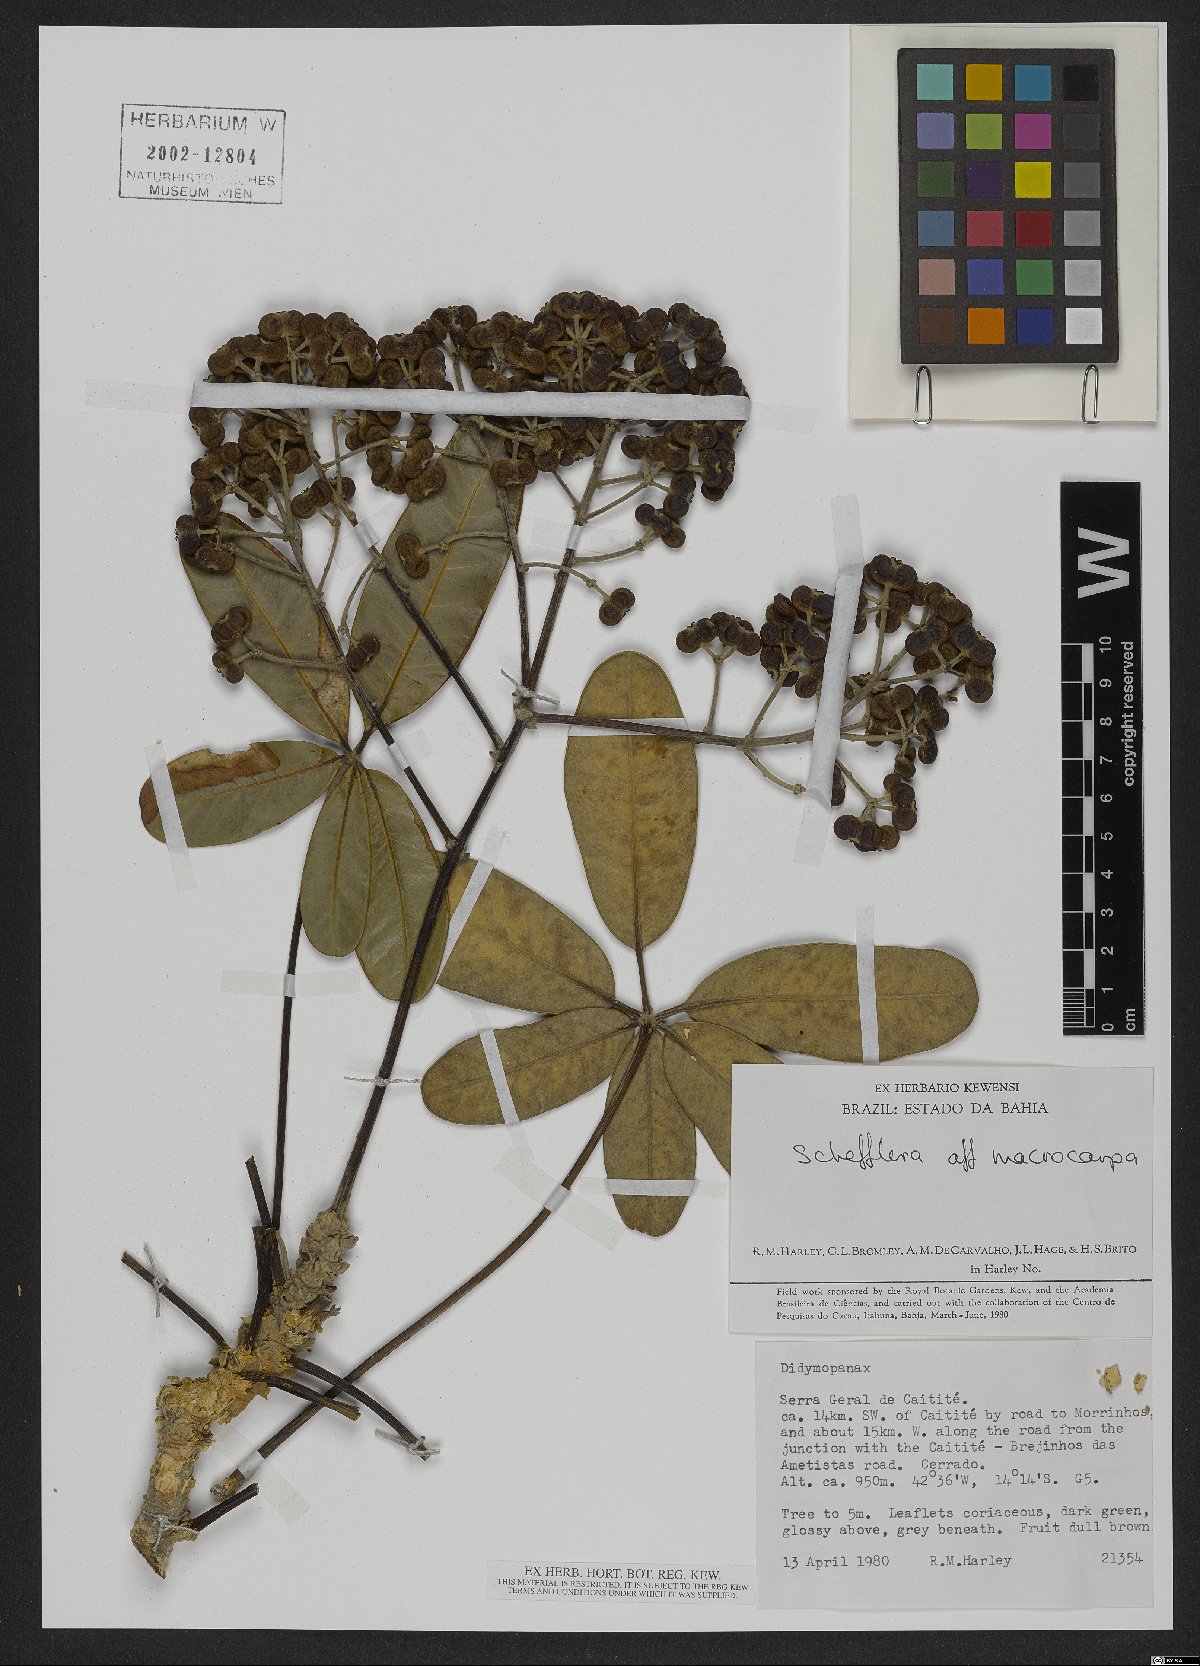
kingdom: Plantae
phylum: Tracheophyta
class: Magnoliopsida
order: Apiales
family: Araliaceae
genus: Didymopanax
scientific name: Didymopanax macrocarpus
